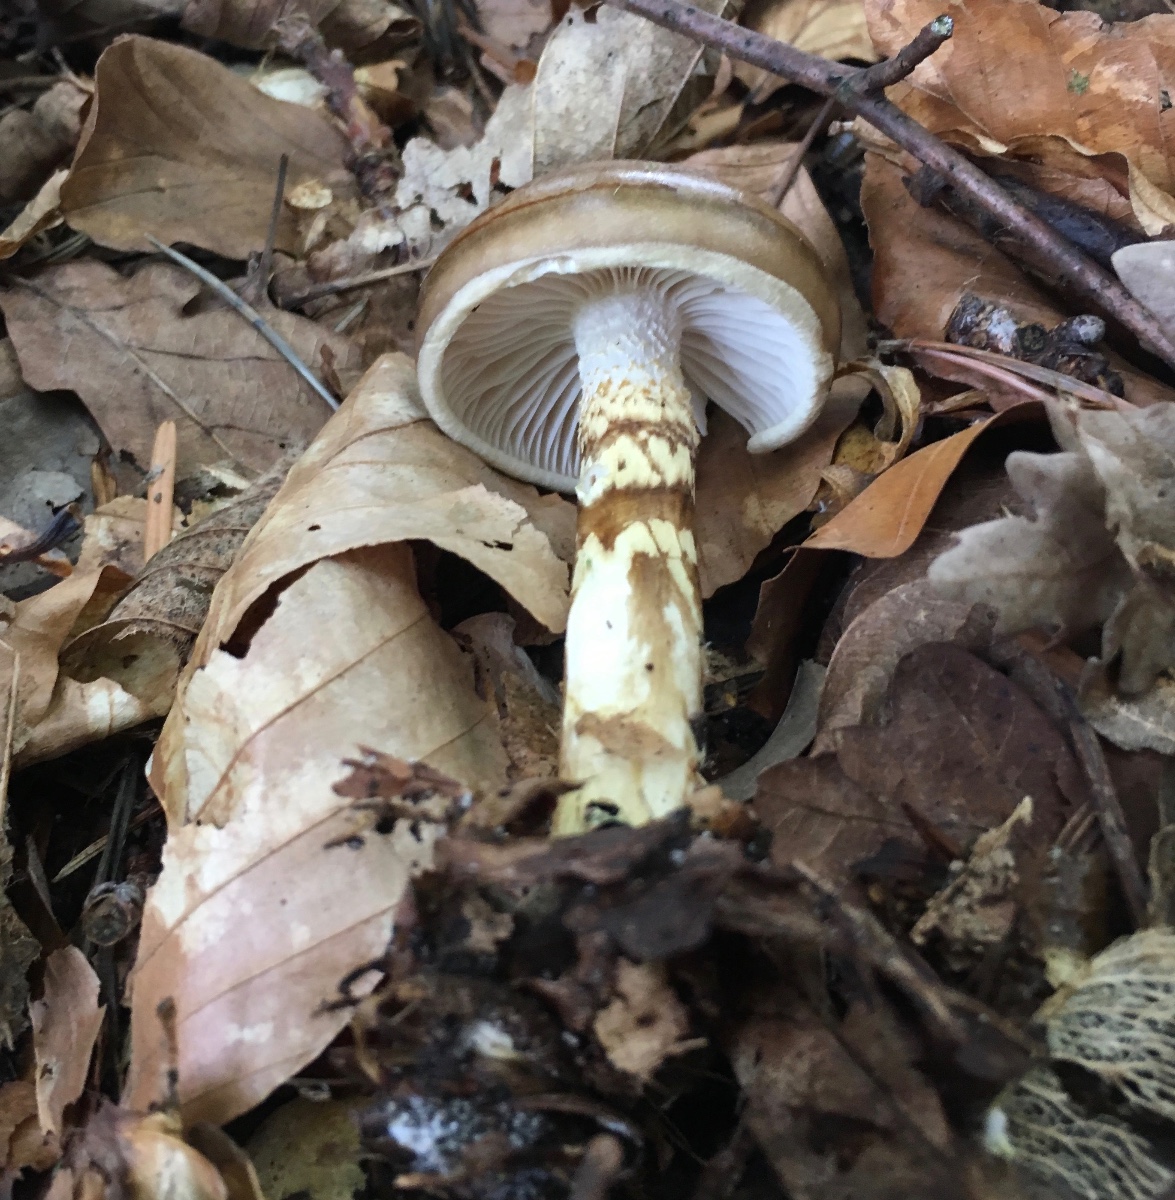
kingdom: Fungi
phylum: Basidiomycota
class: Agaricomycetes
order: Agaricales
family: Hygrophoraceae
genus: Hygrophorus
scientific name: Hygrophorus glutinifer
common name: tvefarvet sneglehat
